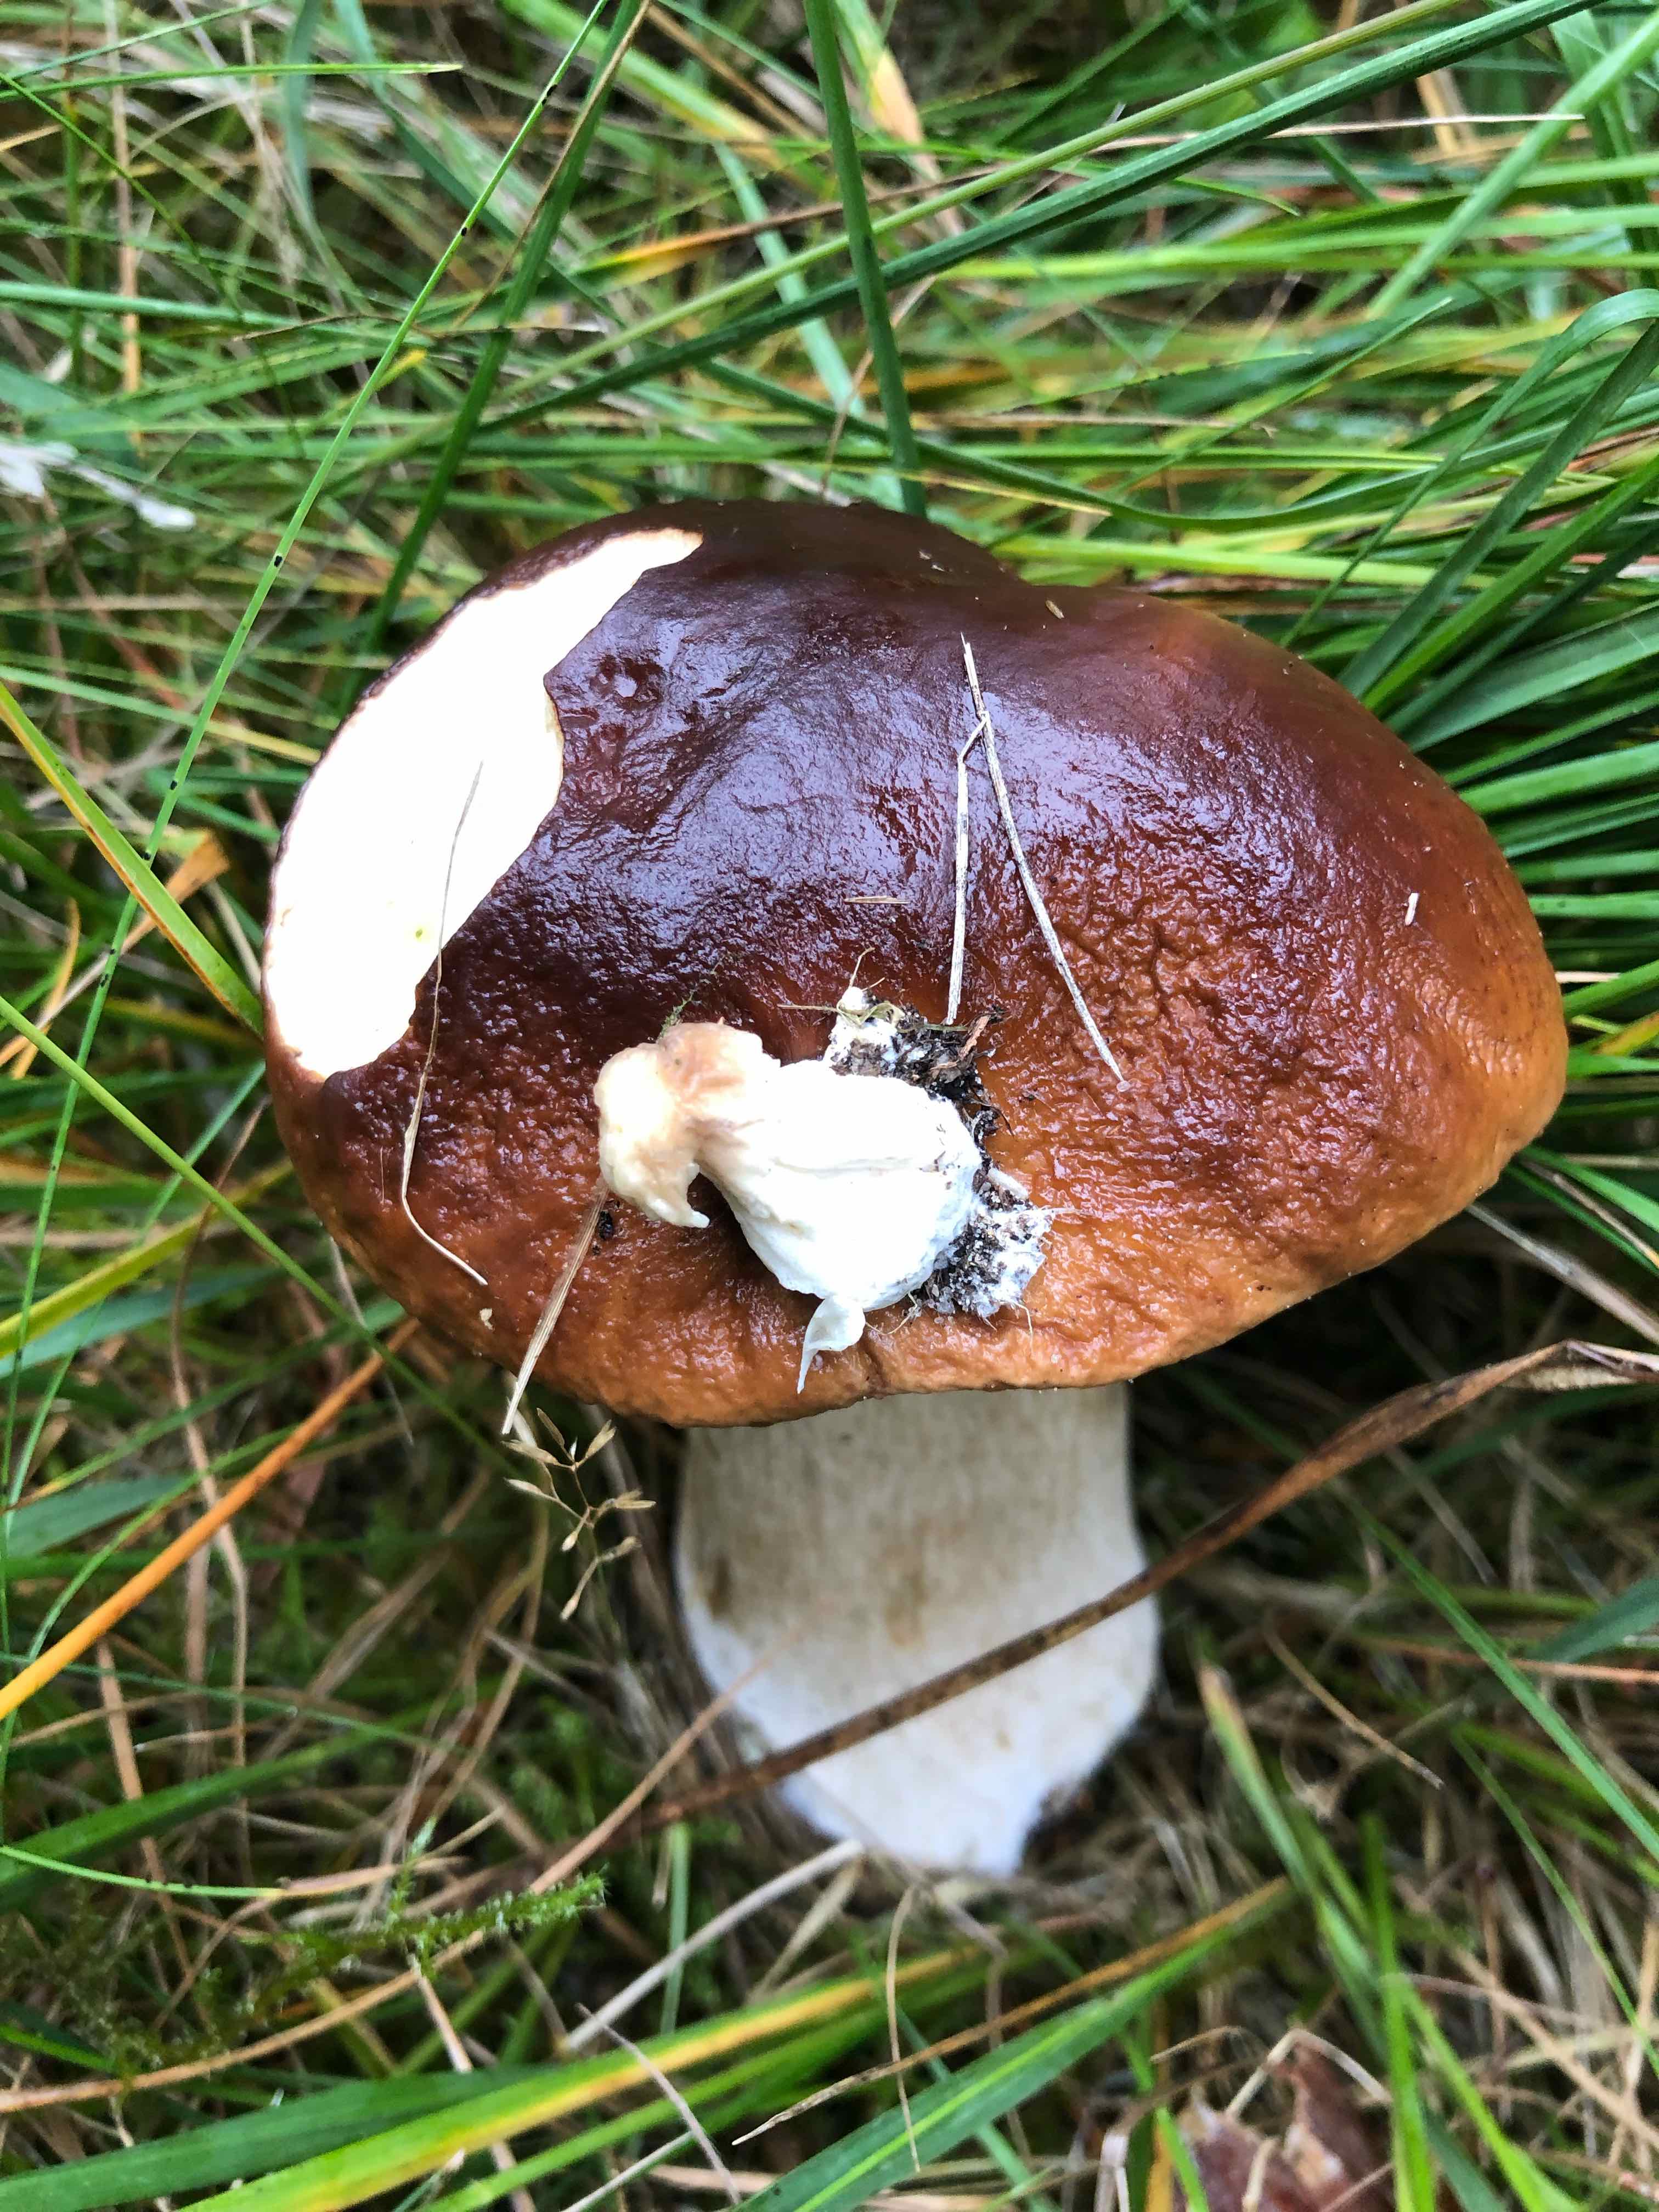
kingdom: Fungi
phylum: Basidiomycota
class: Agaricomycetes
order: Boletales
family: Boletaceae
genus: Boletus
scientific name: Boletus edulis
